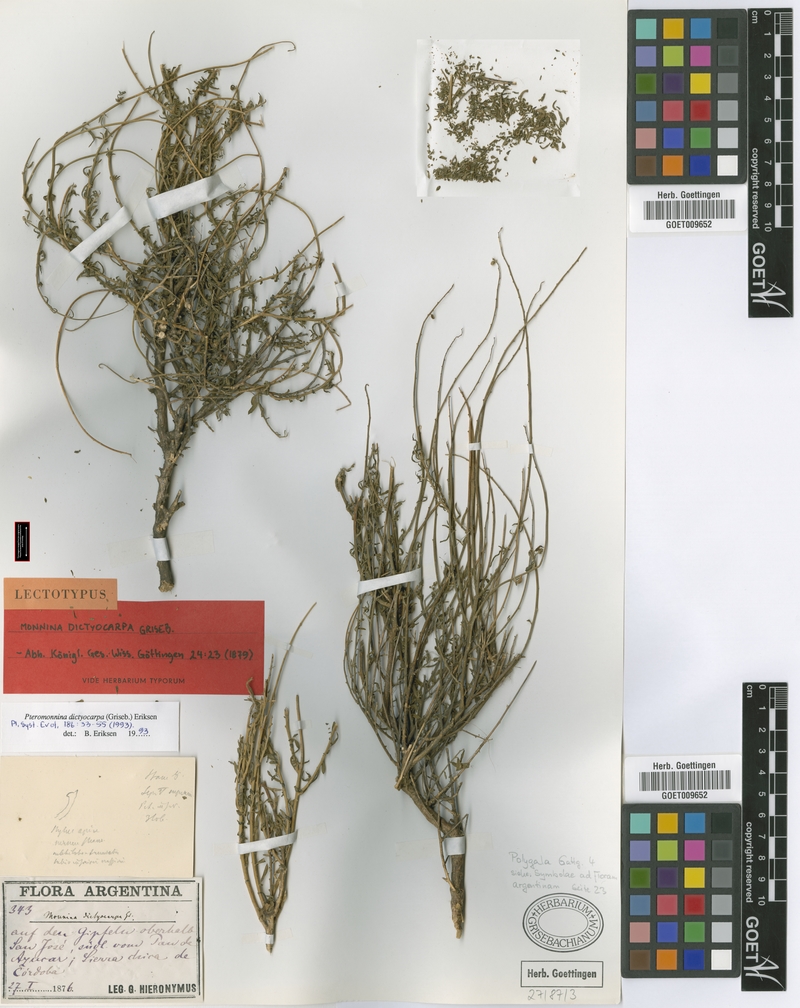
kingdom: Plantae
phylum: Tracheophyta
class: Magnoliopsida
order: Fabales
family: Polygalaceae
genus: Monnina
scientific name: Monnina dictyocarpa
